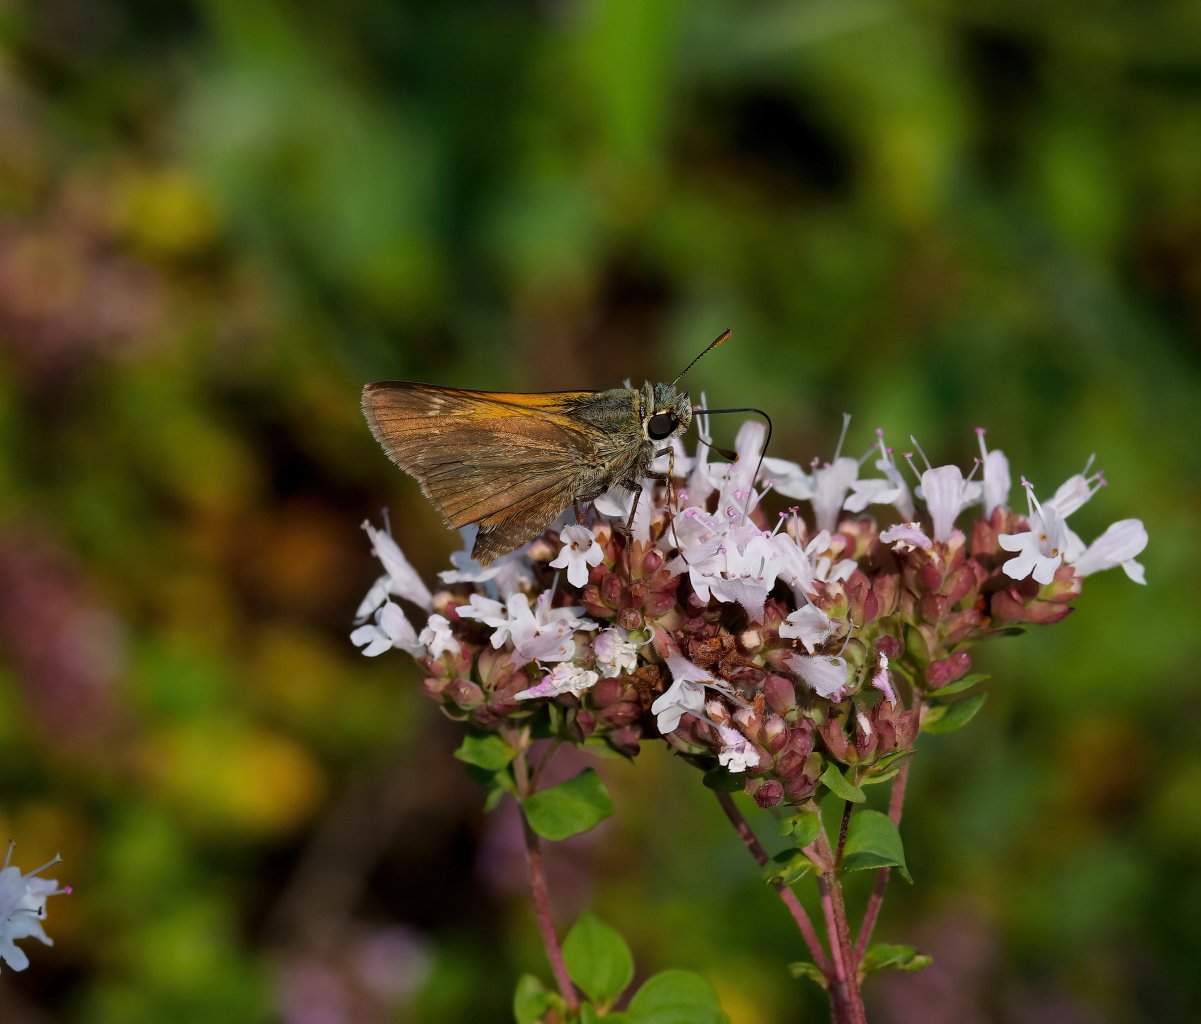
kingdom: Animalia
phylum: Arthropoda
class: Insecta
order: Lepidoptera
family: Hesperiidae
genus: Polites
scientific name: Polites themistocles
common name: Tawny-edged Skipper
